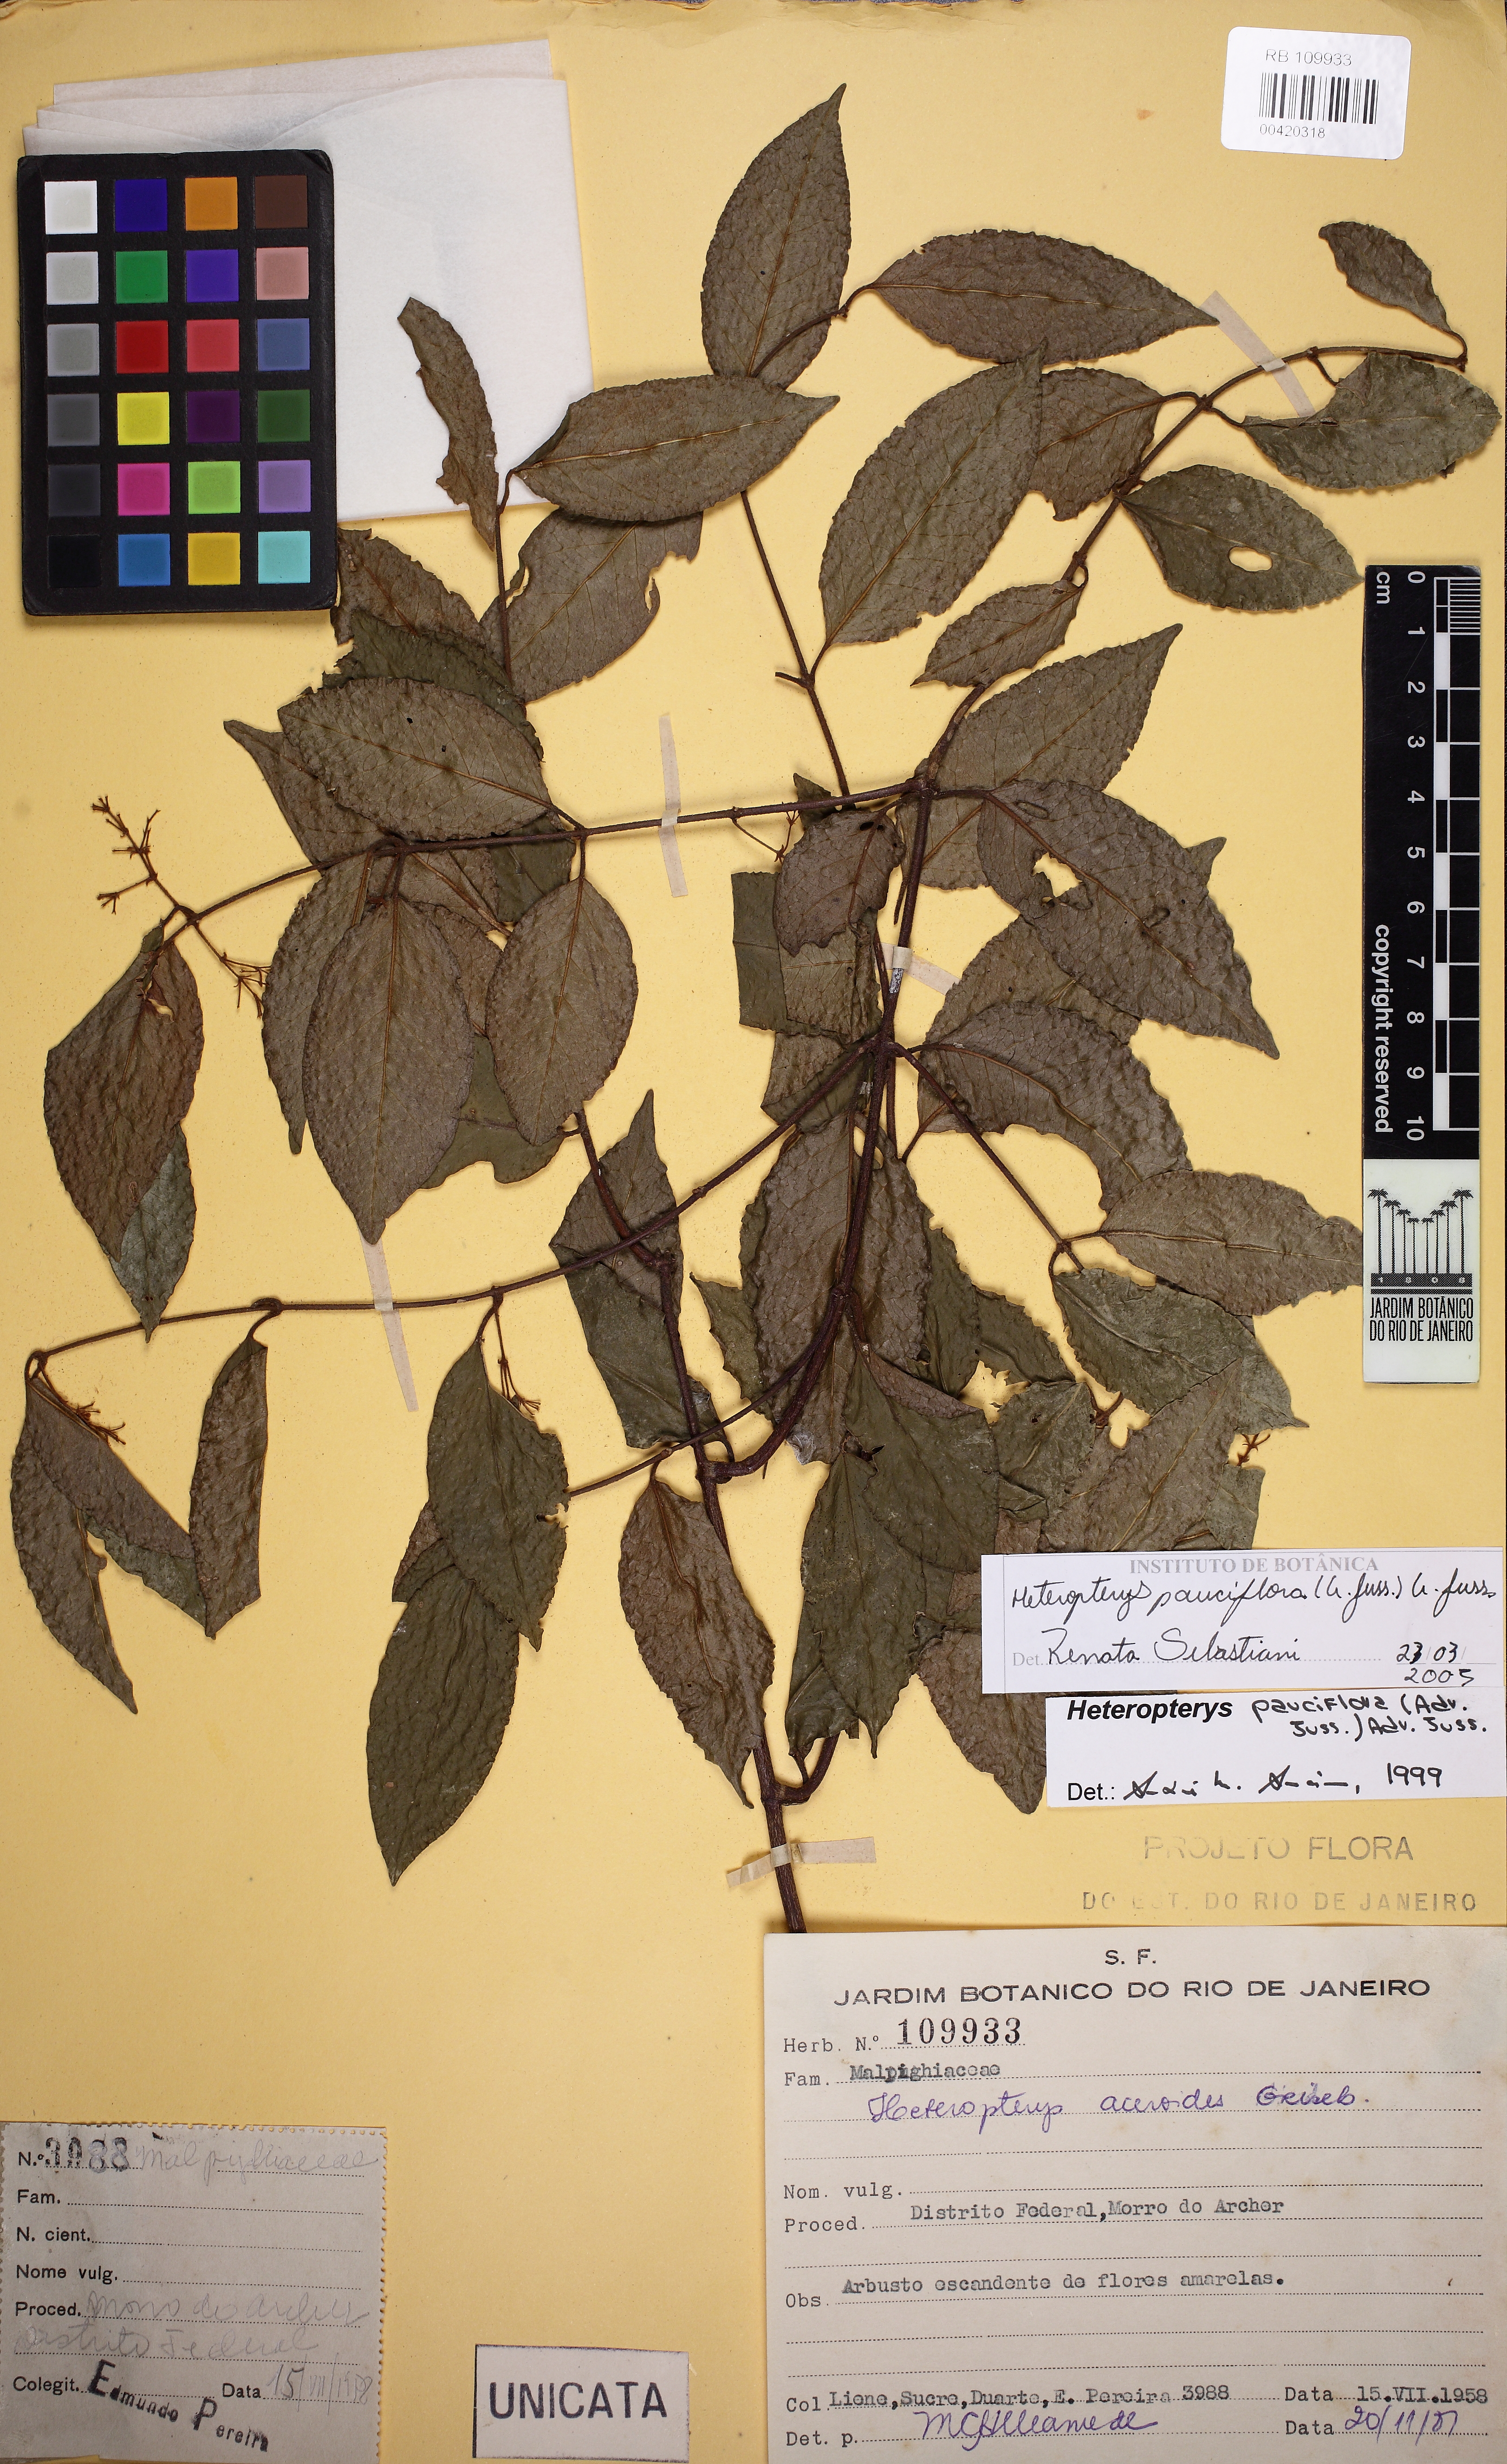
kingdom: Plantae
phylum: Tracheophyta
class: Magnoliopsida
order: Malpighiales
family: Malpighiaceae
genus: Heteropterys
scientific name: Heteropterys pauciflora
